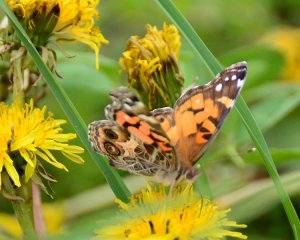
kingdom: Animalia
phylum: Arthropoda
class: Insecta
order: Lepidoptera
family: Nymphalidae
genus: Vanessa
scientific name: Vanessa virginiensis
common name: American Lady
